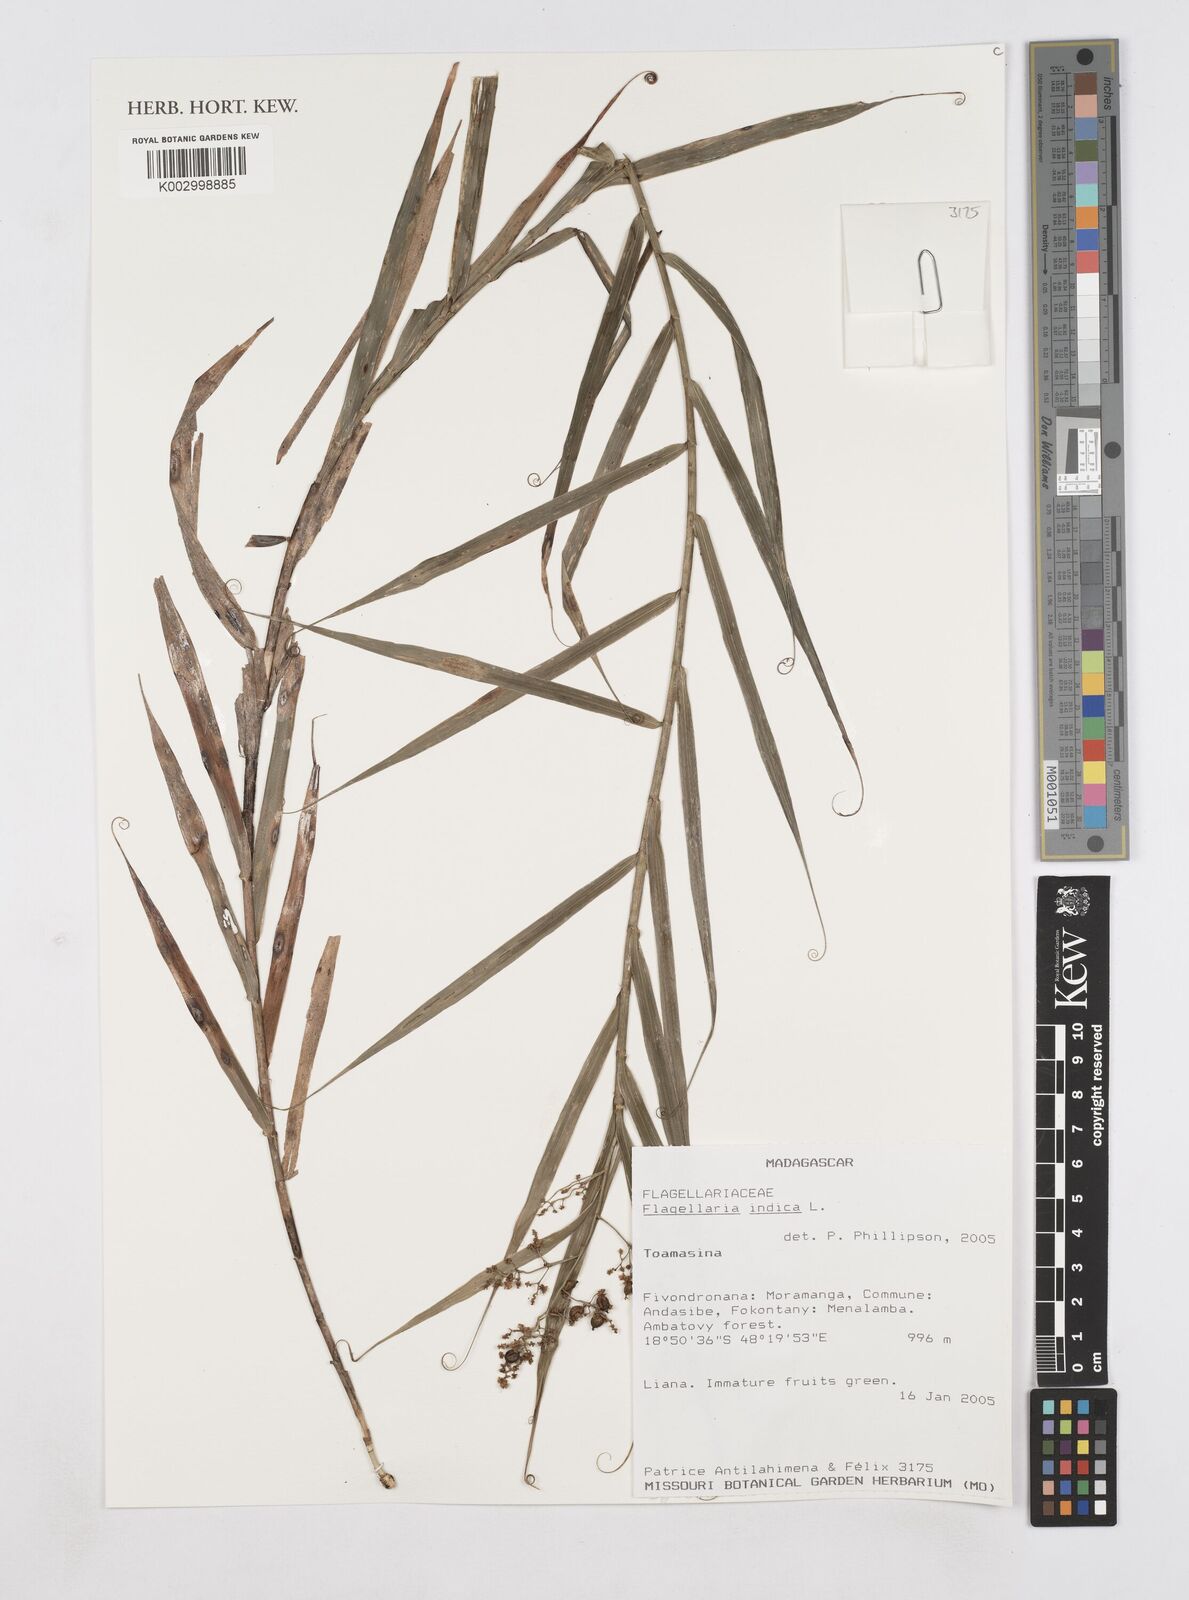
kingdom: Plantae
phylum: Tracheophyta
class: Liliopsida
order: Poales
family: Flagellariaceae
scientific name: Flagellariaceae
